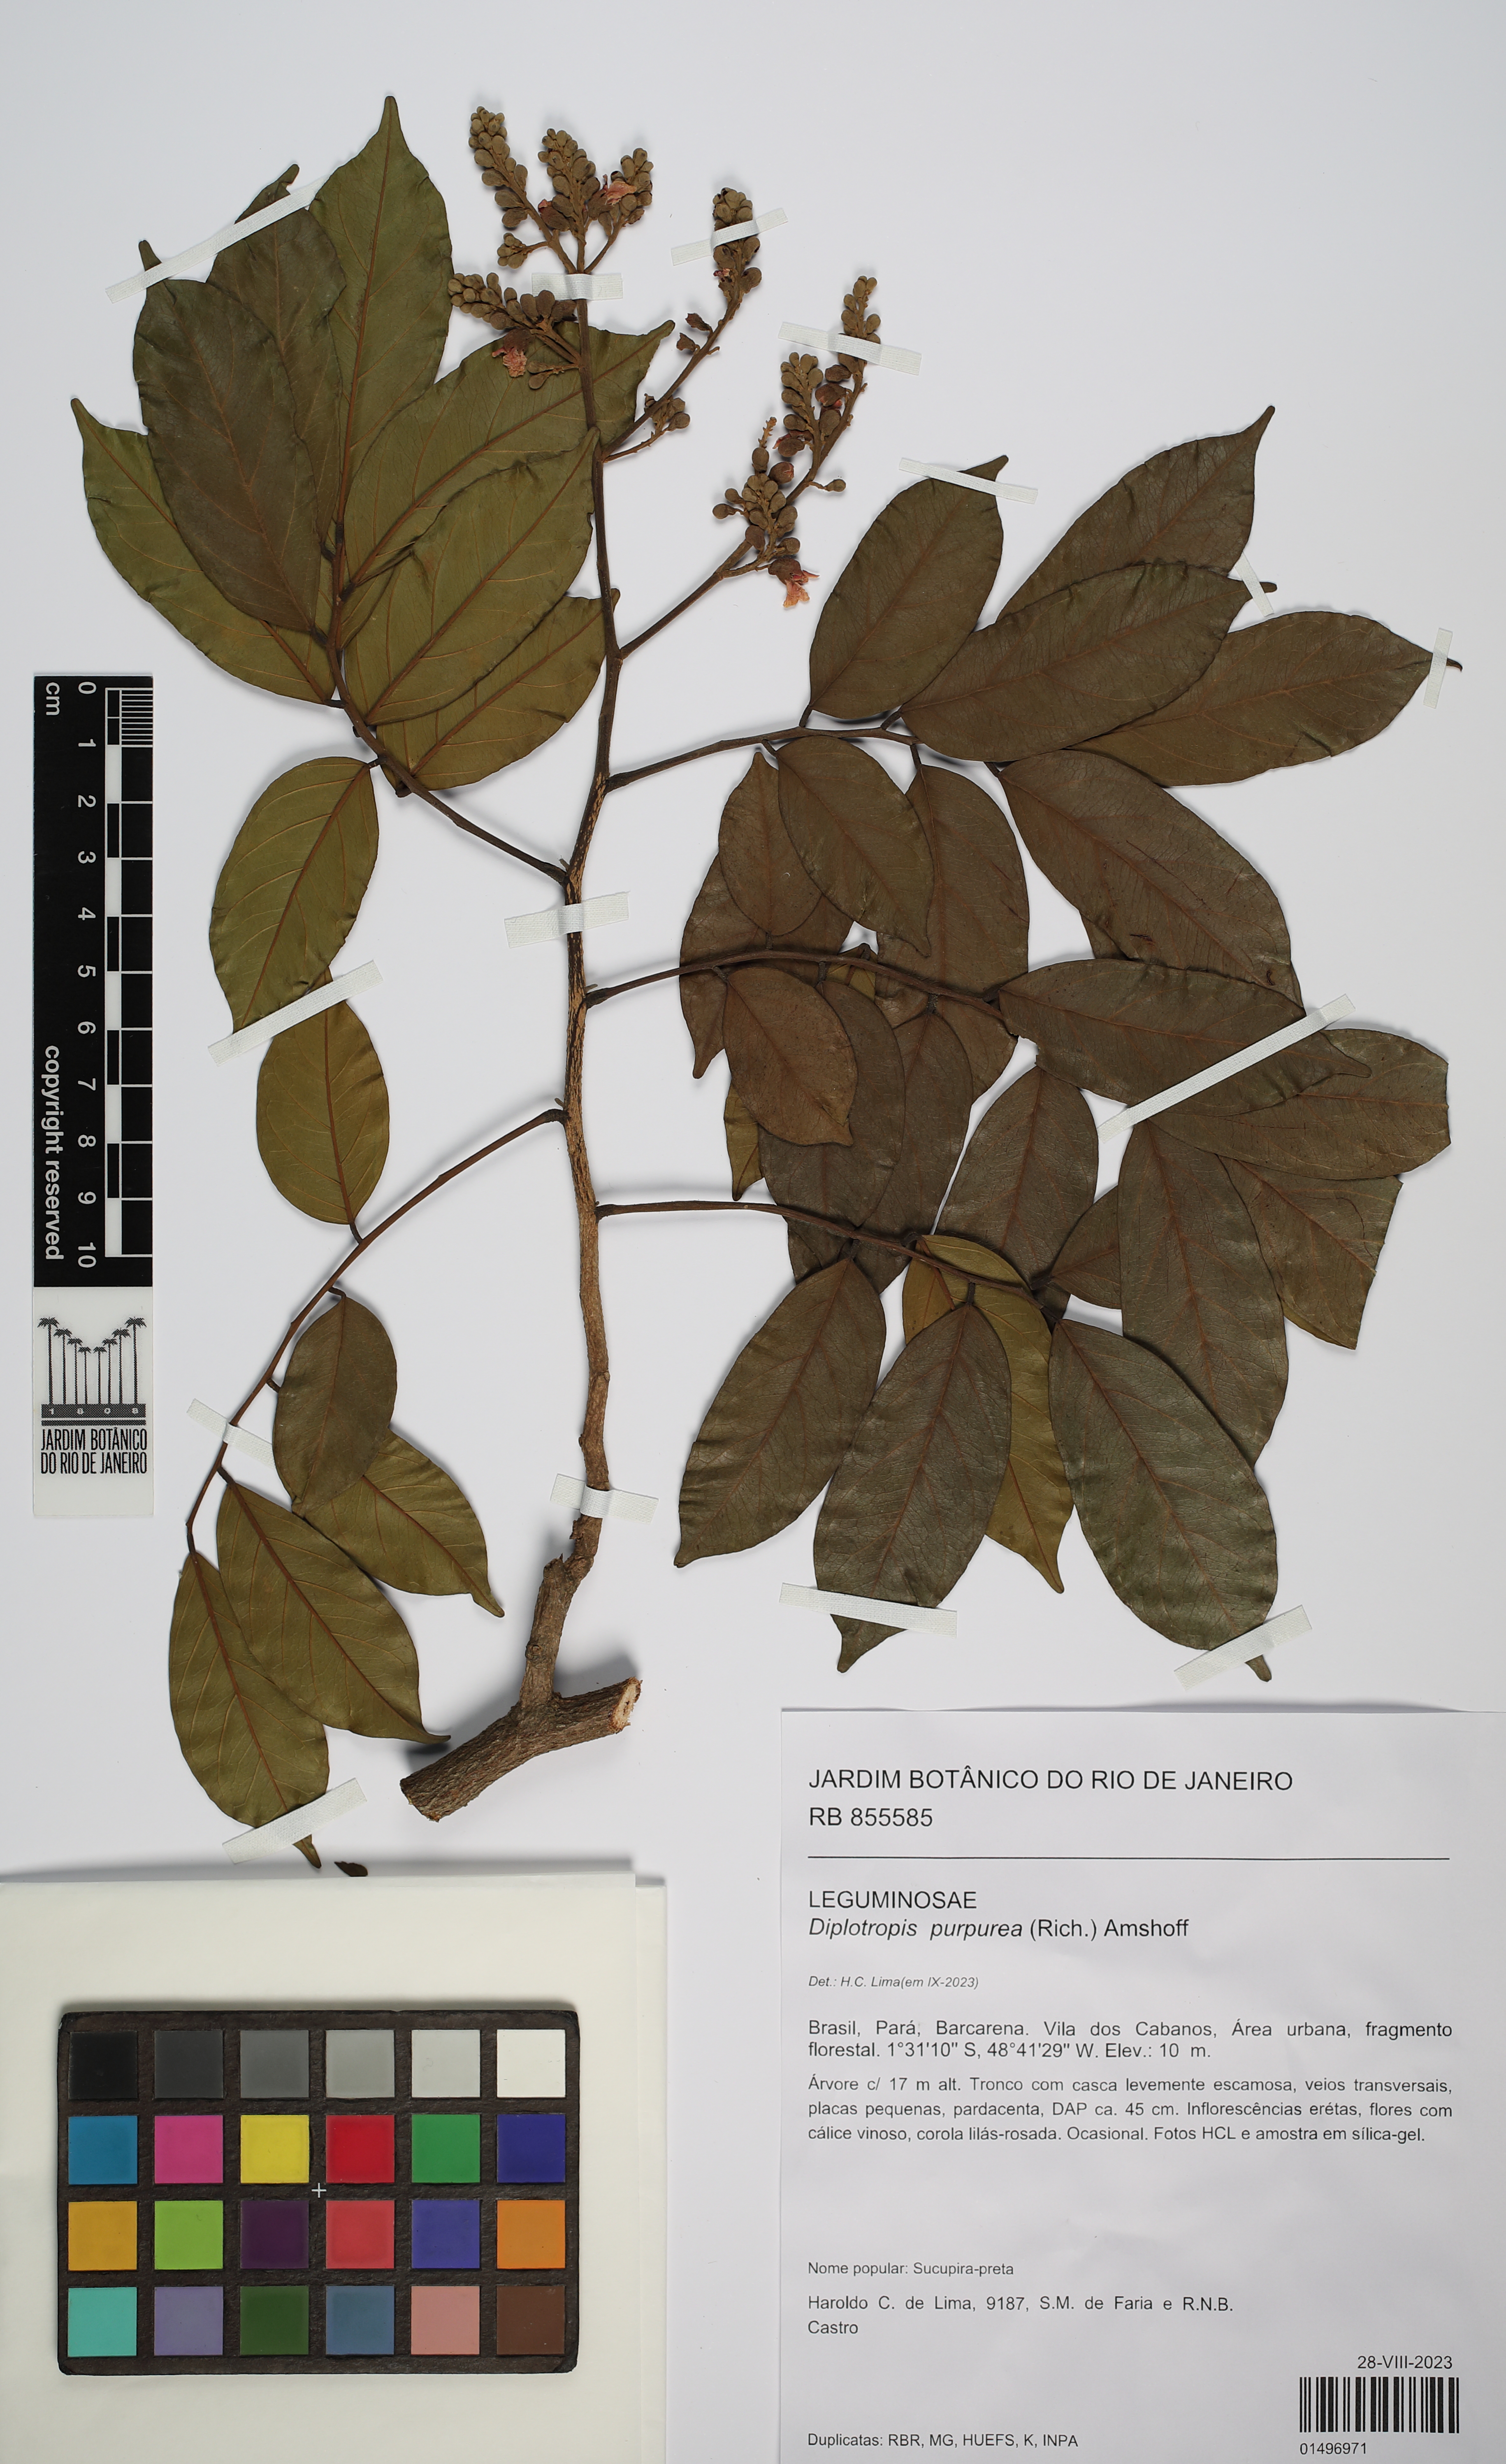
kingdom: Plantae
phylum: Tracheophyta
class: Magnoliopsida
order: Fabales
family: Fabaceae
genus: Diplotropis
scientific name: Diplotropis purpurea
